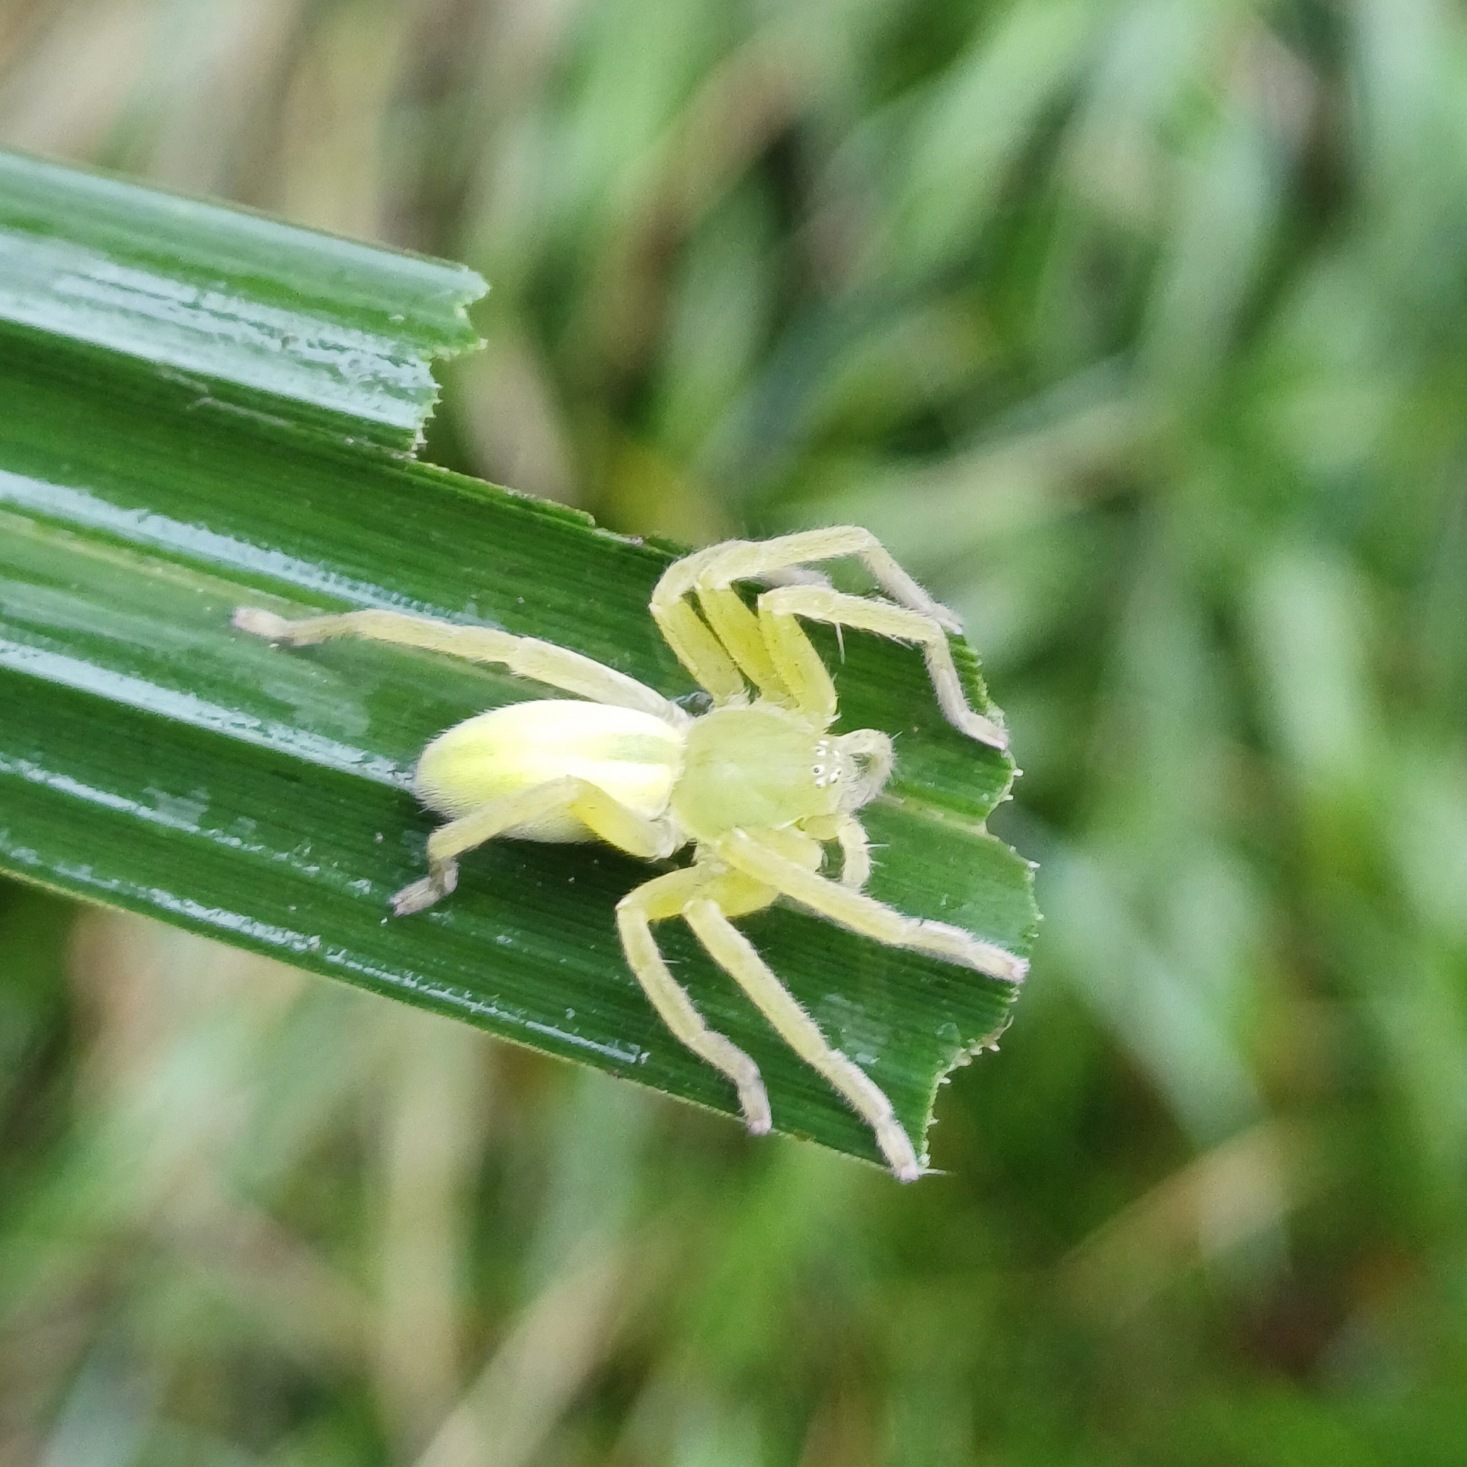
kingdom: Animalia
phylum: Arthropoda
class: Arachnida
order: Araneae
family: Sparassidae
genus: Micrommata
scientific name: Micrommata virescens
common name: Smaragdedderkop
